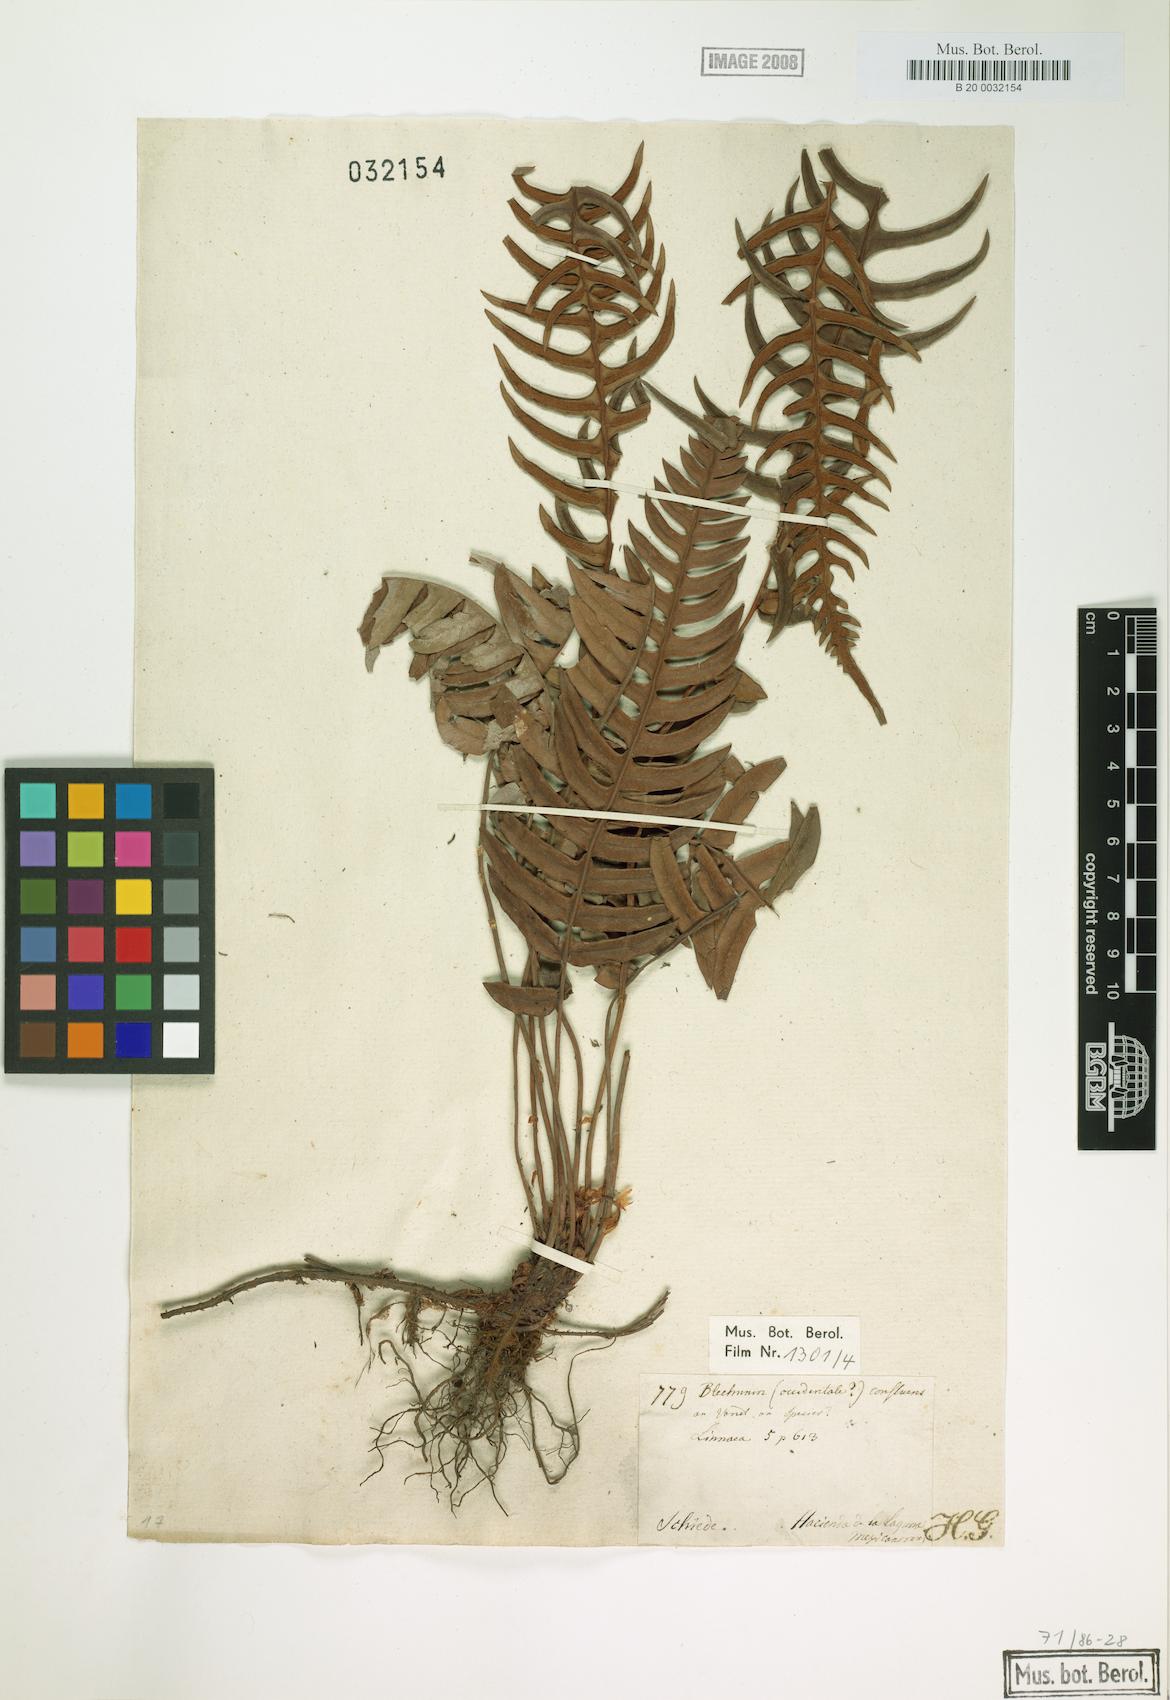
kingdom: Plantae
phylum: Tracheophyta
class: Polypodiopsida
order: Polypodiales
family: Blechnaceae
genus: Blechnum
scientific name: Blechnum confluens
